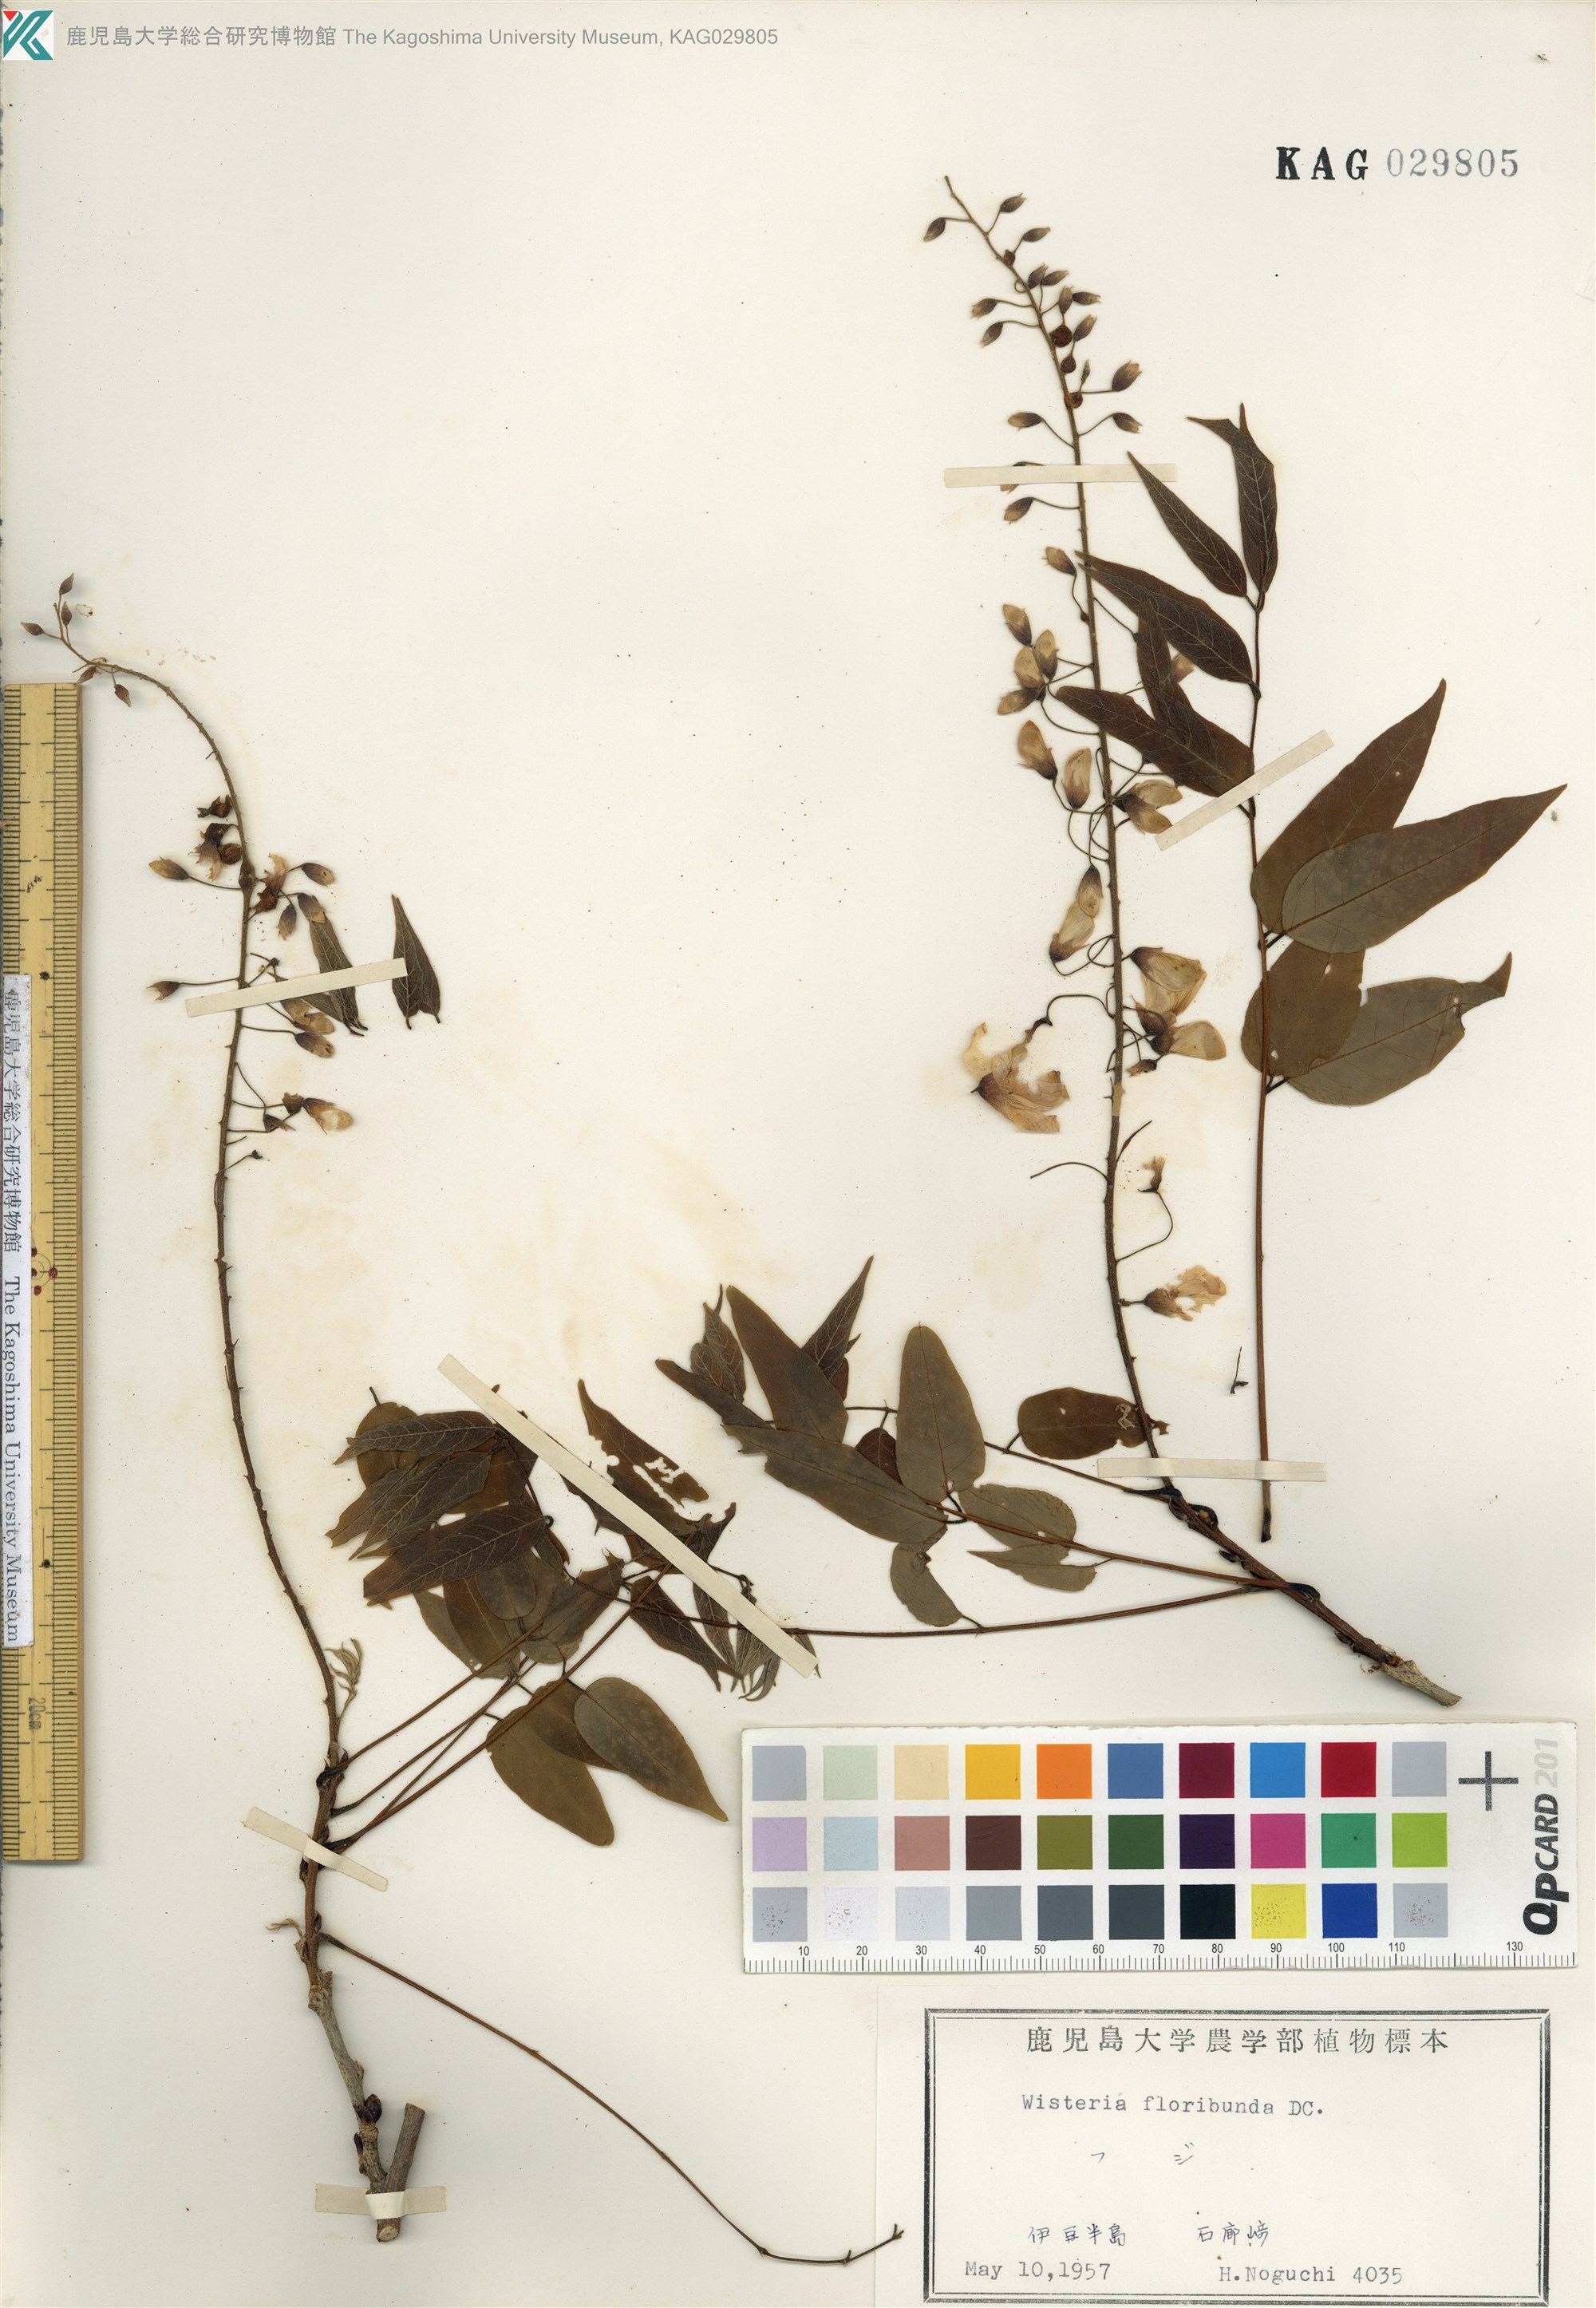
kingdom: Plantae
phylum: Tracheophyta
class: Magnoliopsida
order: Fabales
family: Fabaceae
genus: Wisteria
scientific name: Wisteria floribunda
